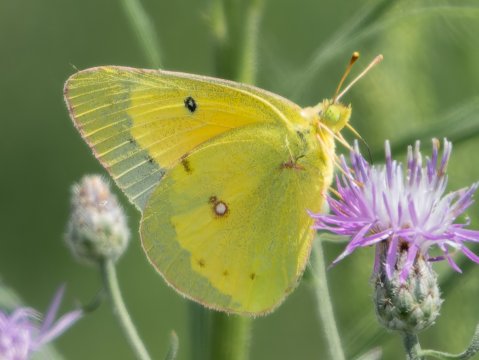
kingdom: Animalia
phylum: Arthropoda
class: Insecta
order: Lepidoptera
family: Pieridae
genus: Colias
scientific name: Colias philodice
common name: Clouded Sulphur
